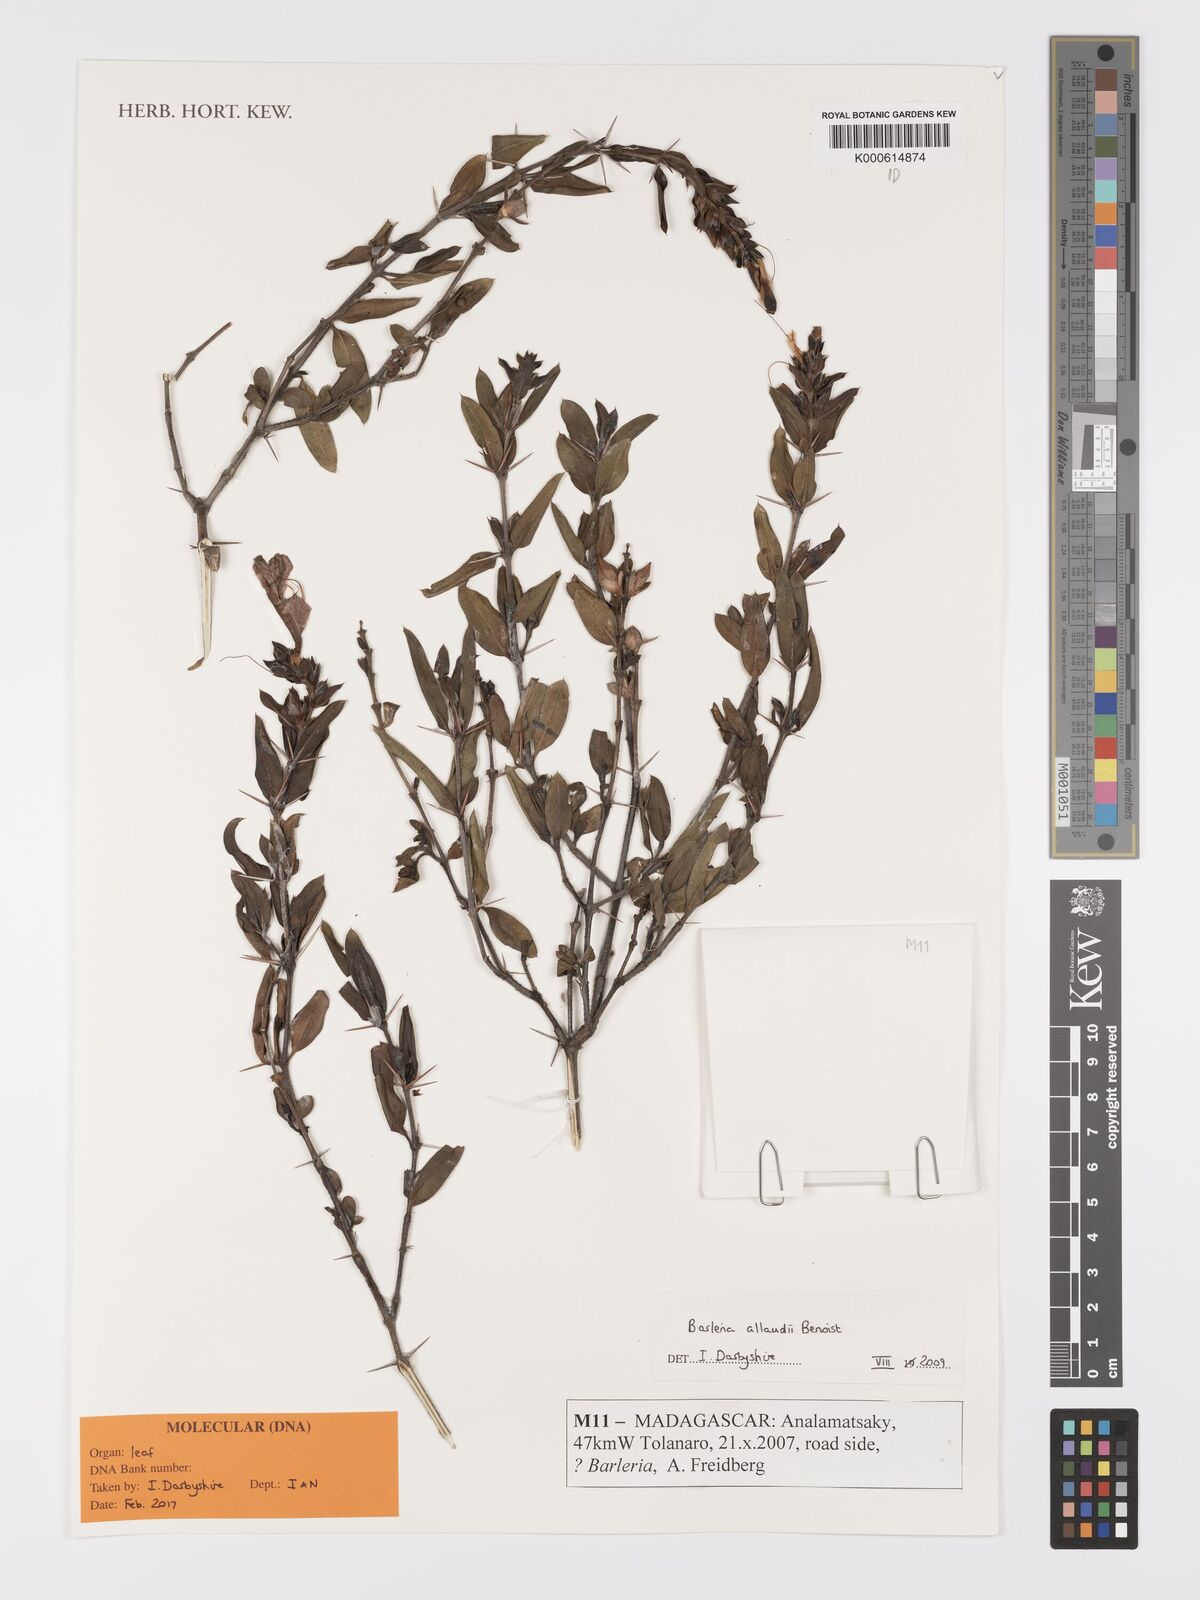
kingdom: Plantae
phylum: Tracheophyta
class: Magnoliopsida
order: Lamiales
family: Acanthaceae
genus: Barleria
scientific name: Barleria alluaudii
